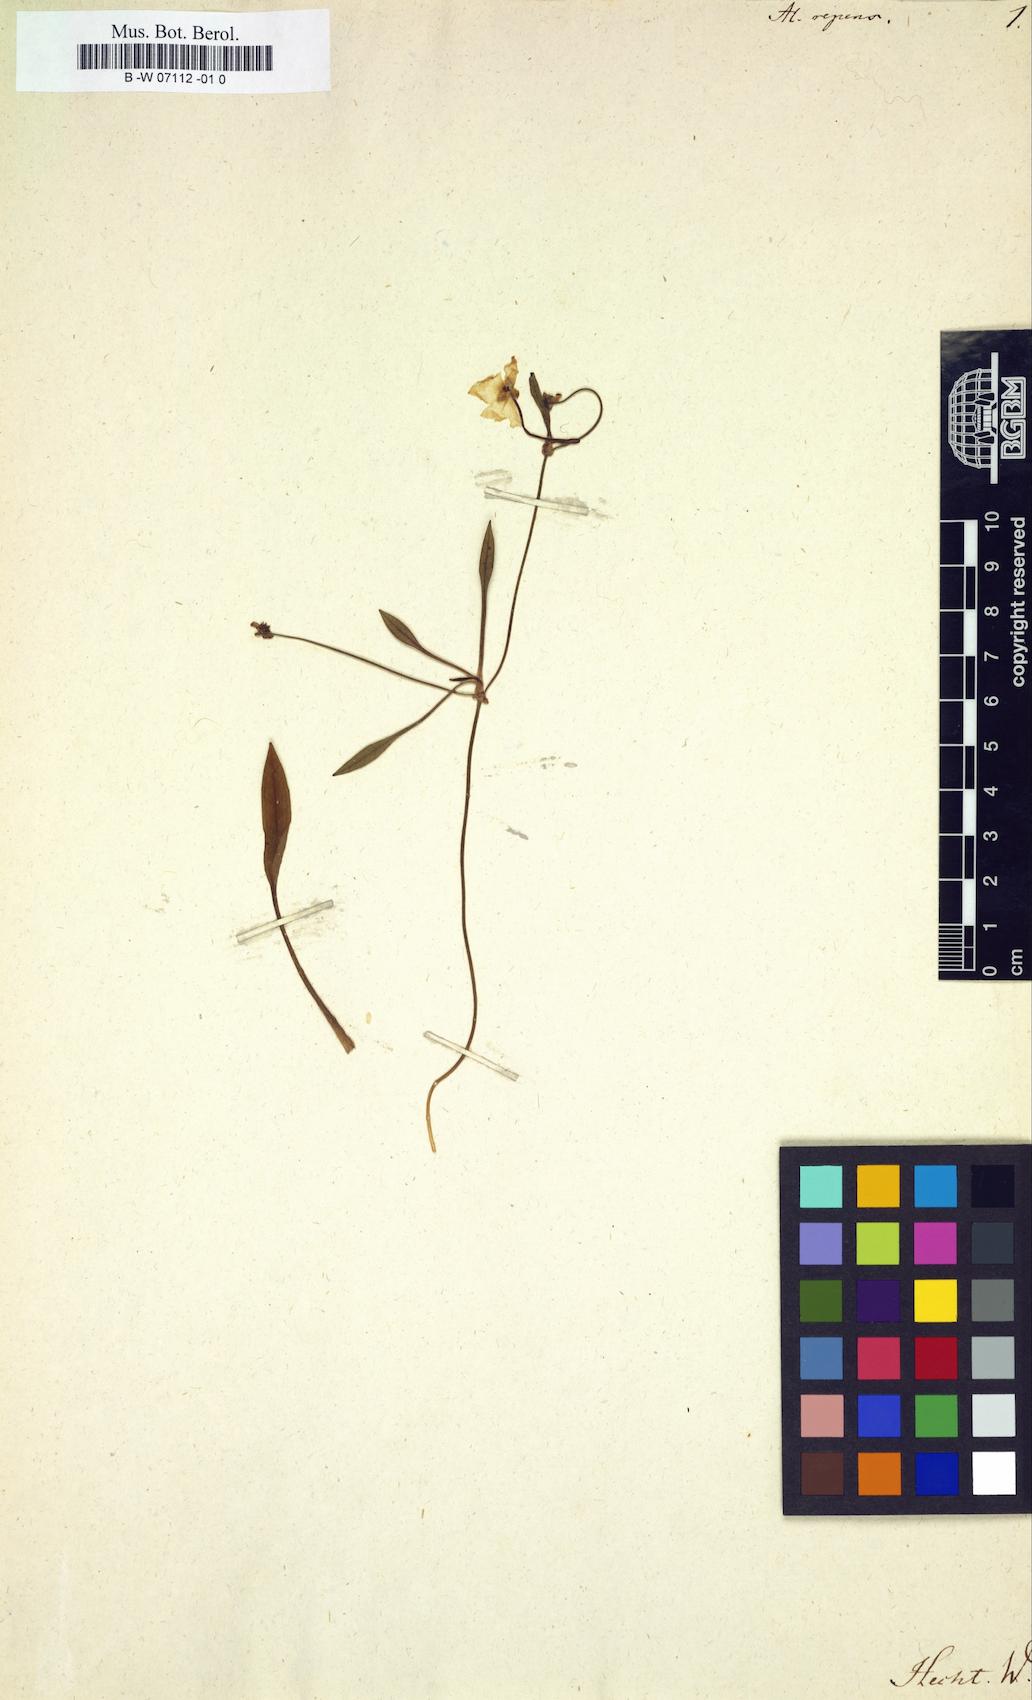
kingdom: Plantae
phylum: Tracheophyta
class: Liliopsida
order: Alismatales
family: Alismataceae
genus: Baldellia
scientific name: Baldellia repens
